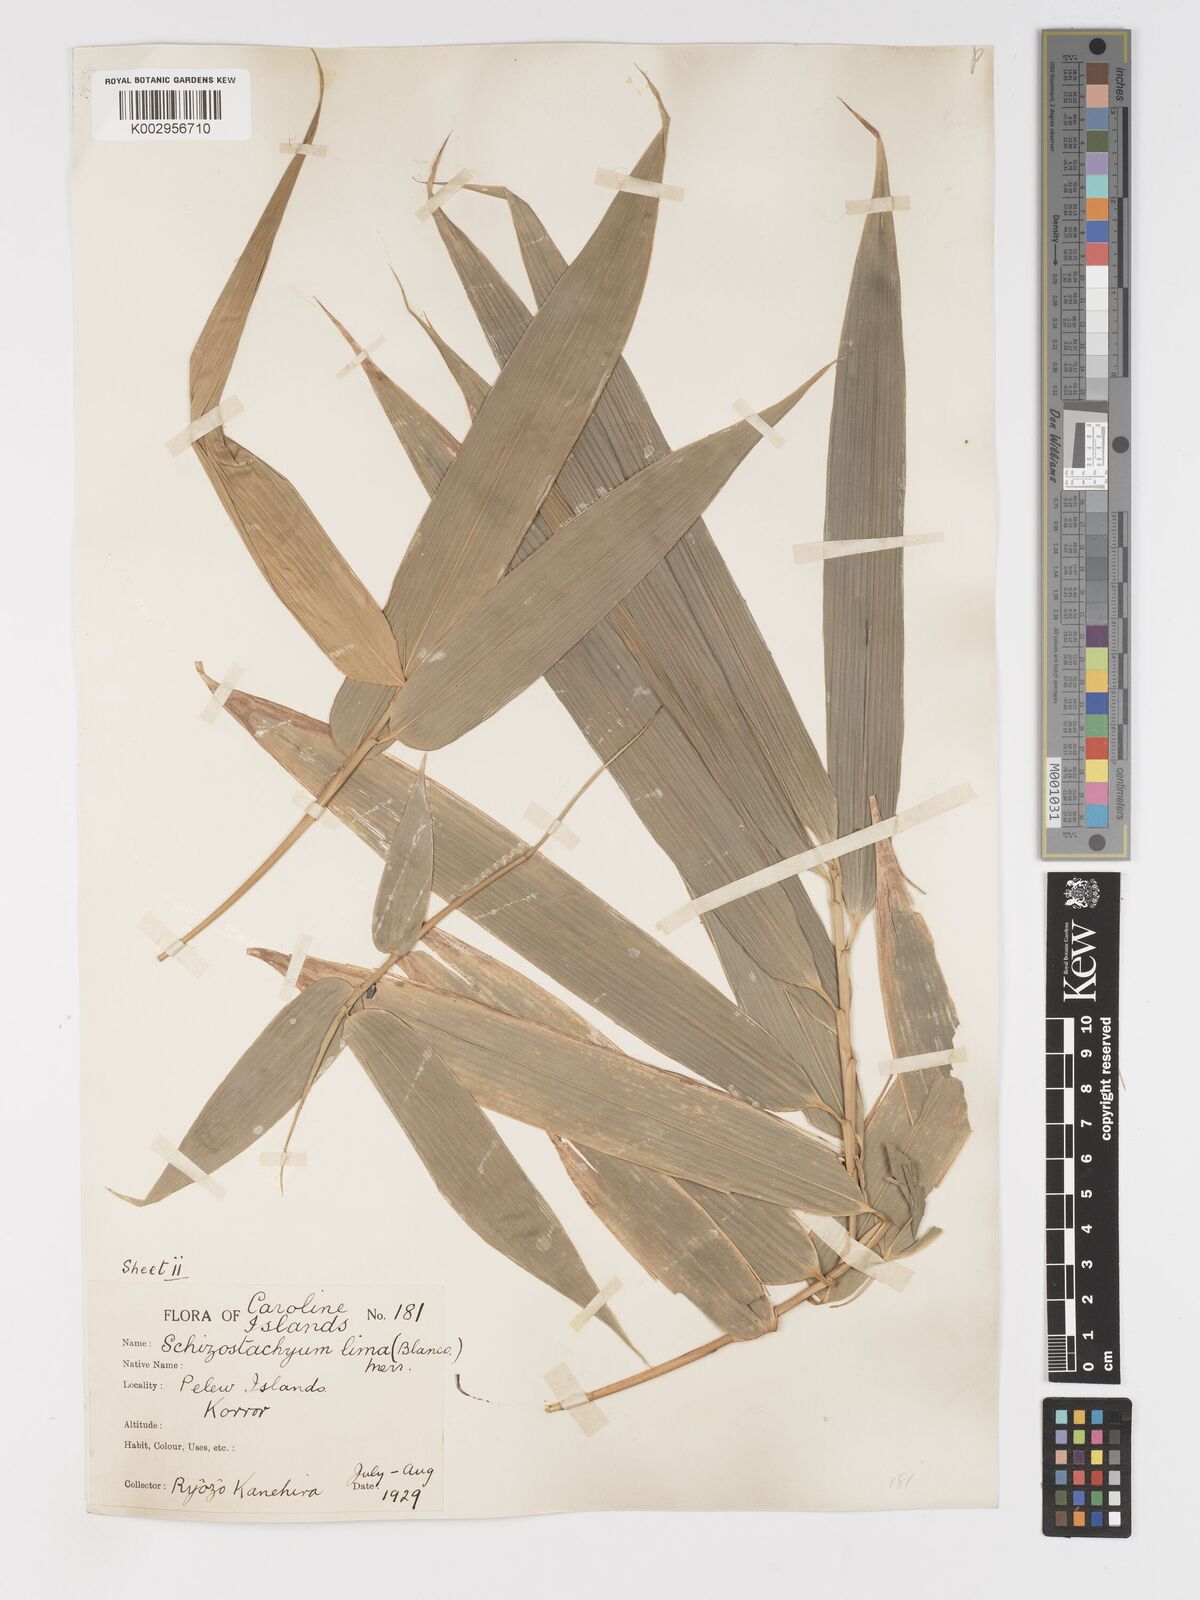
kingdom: Plantae
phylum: Tracheophyta
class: Liliopsida
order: Poales
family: Poaceae
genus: Schizostachyum
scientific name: Schizostachyum lima
